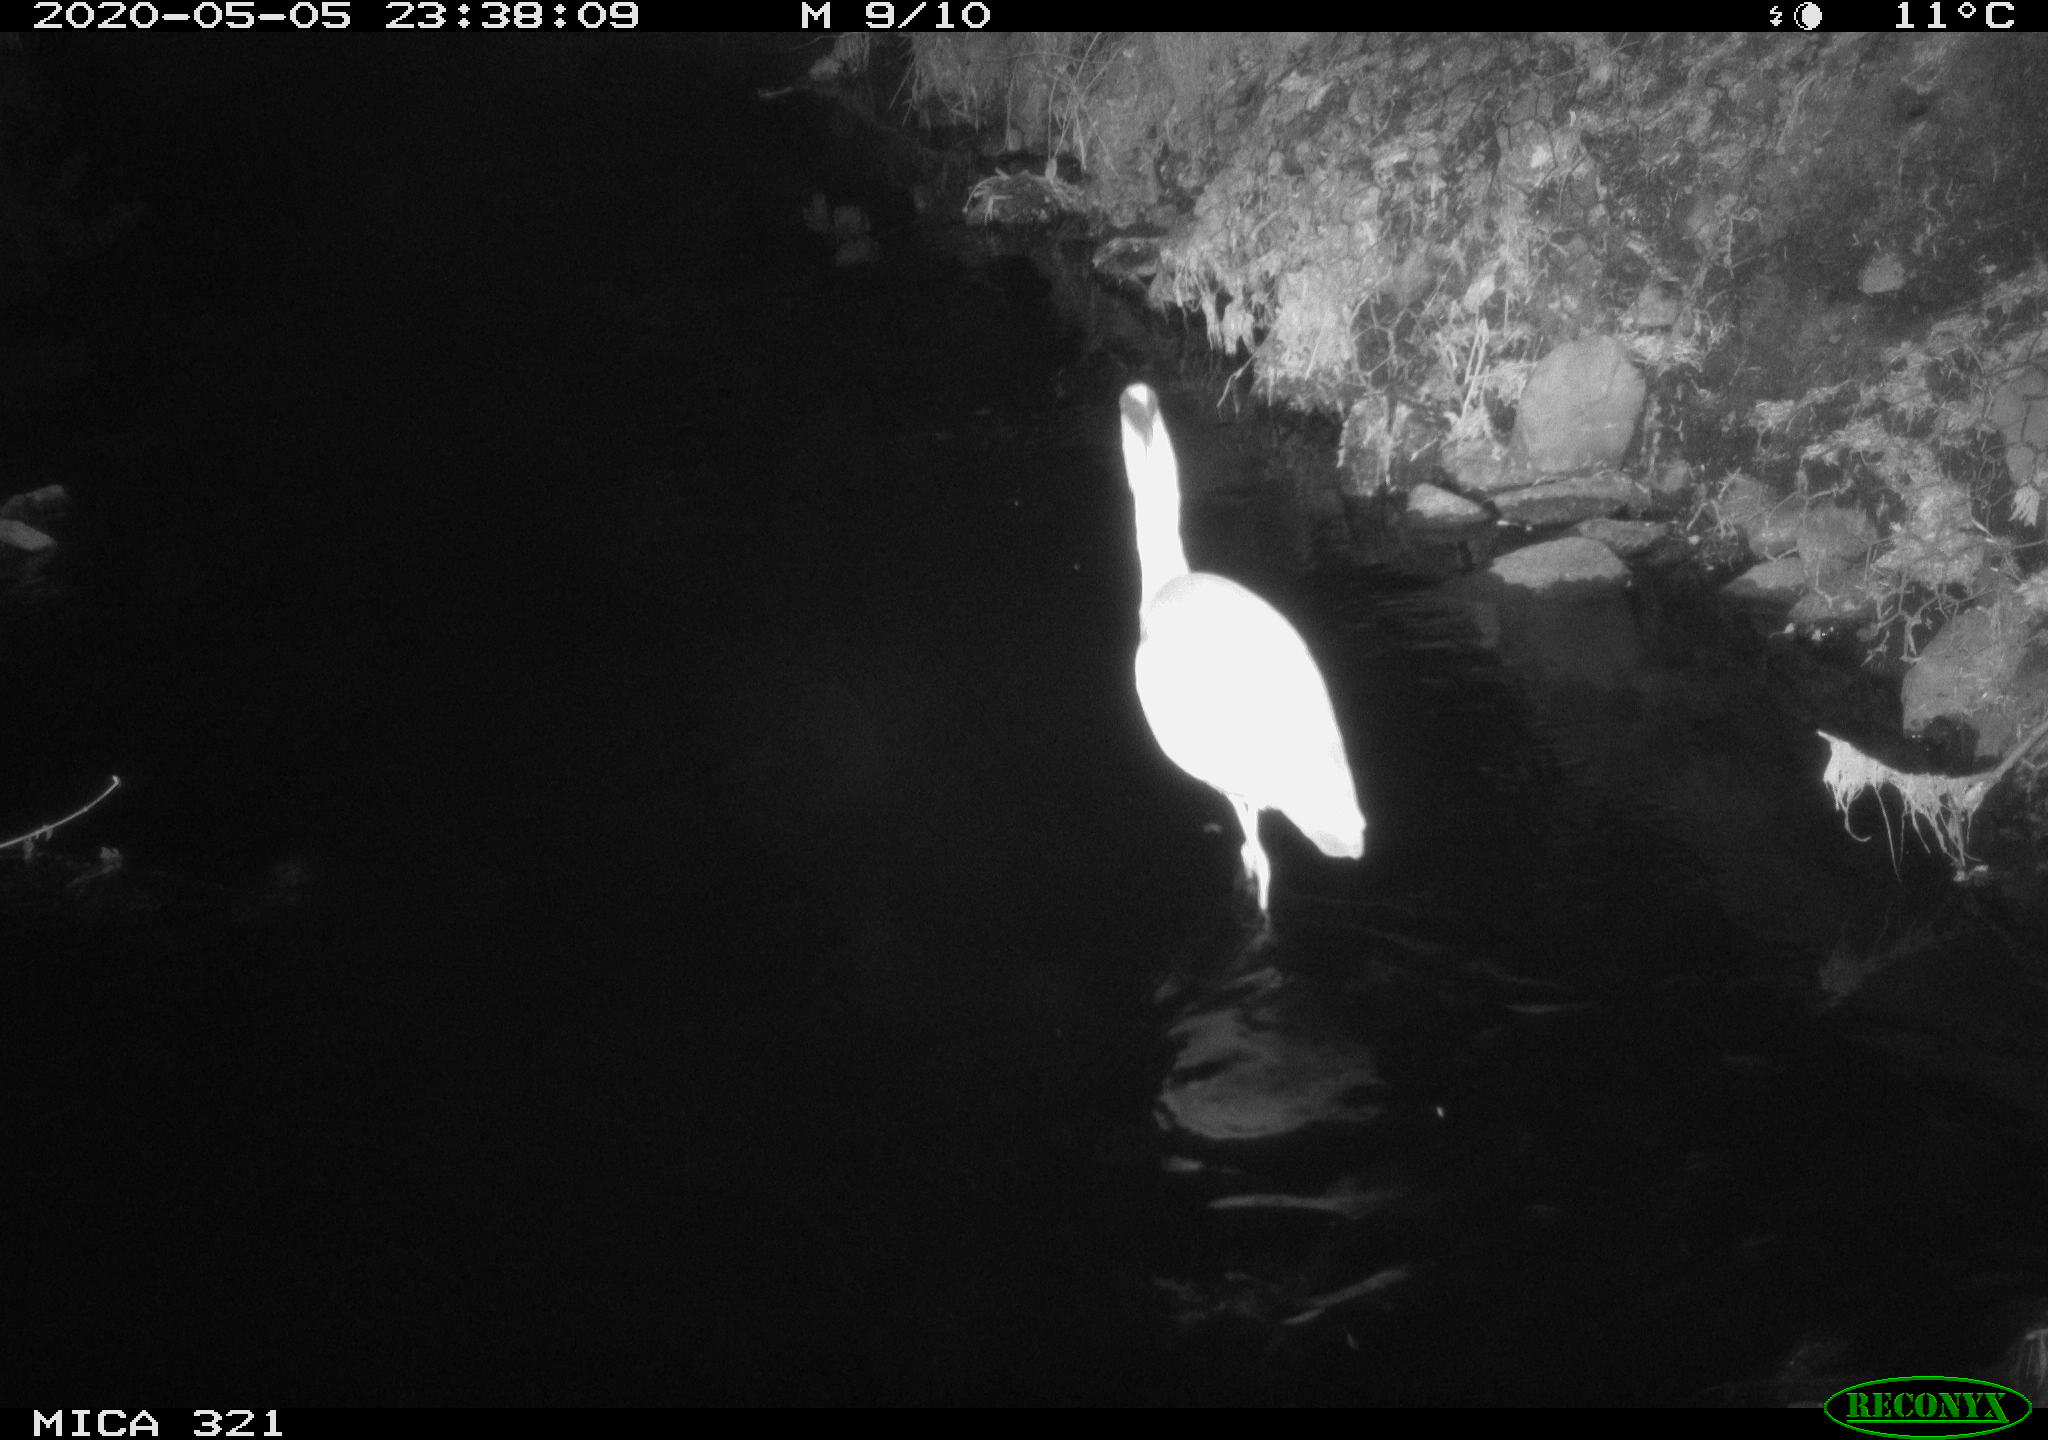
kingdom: Animalia
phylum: Chordata
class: Aves
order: Pelecaniformes
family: Ardeidae
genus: Ardea
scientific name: Ardea cinerea
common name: Grey heron
